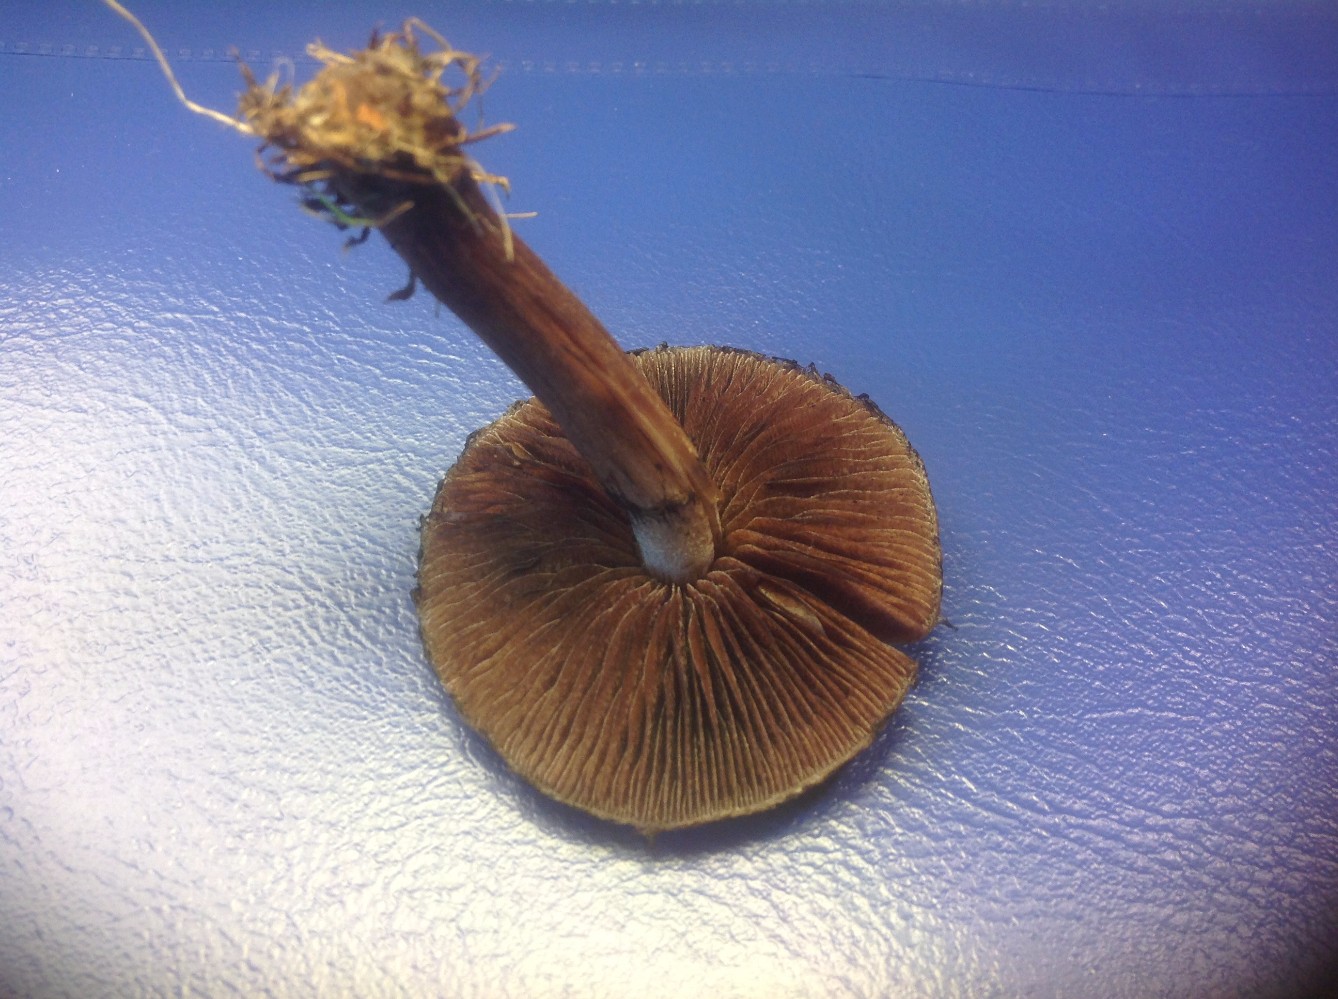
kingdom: Fungi
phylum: Basidiomycota
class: Agaricomycetes
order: Agaricales
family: Psathyrellaceae
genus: Lacrymaria
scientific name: Lacrymaria lacrymabunda
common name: grædende mørkhat
